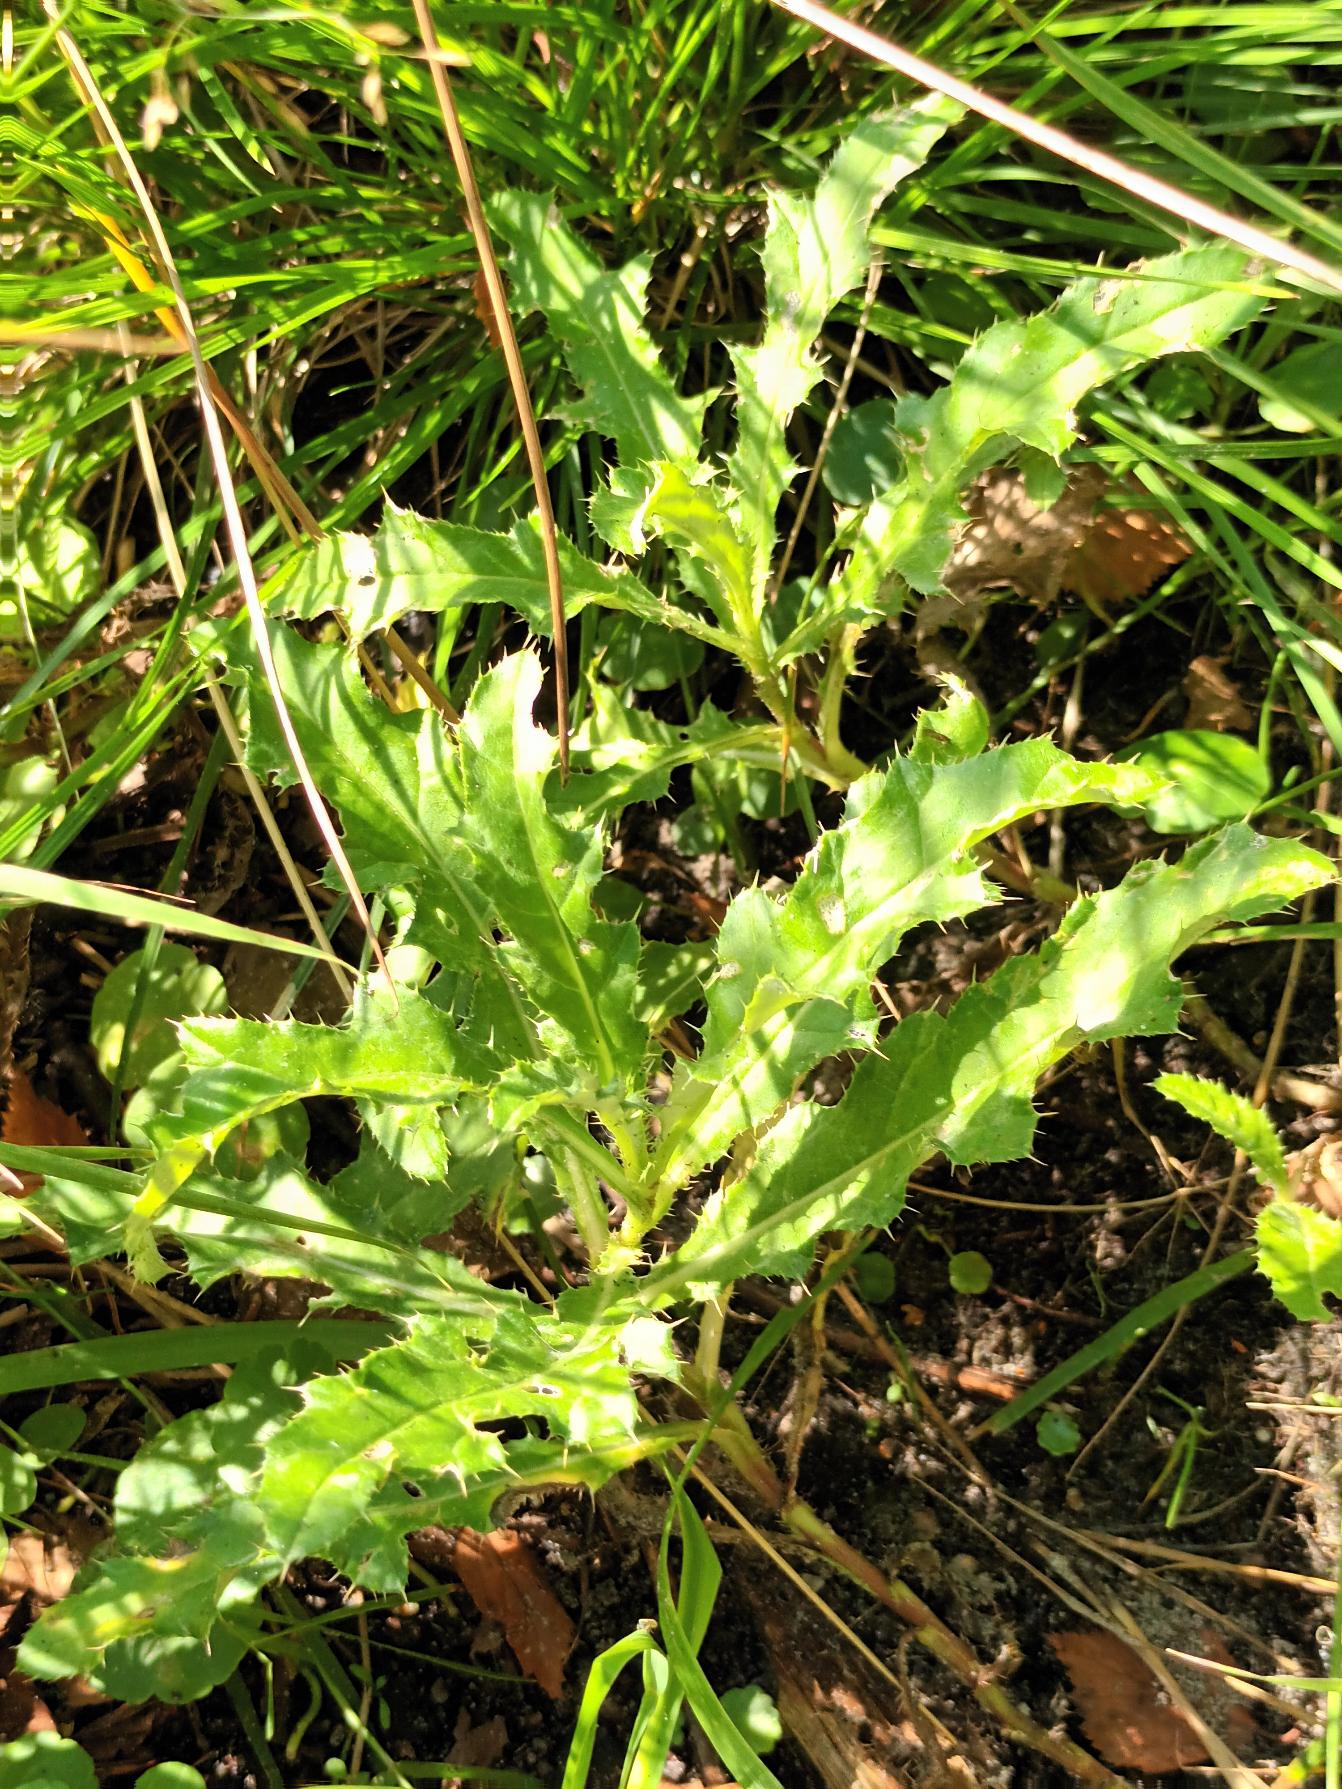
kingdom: Plantae
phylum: Tracheophyta
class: Magnoliopsida
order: Asterales
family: Asteraceae
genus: Cirsium
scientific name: Cirsium arvense
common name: Ager-tidsel
